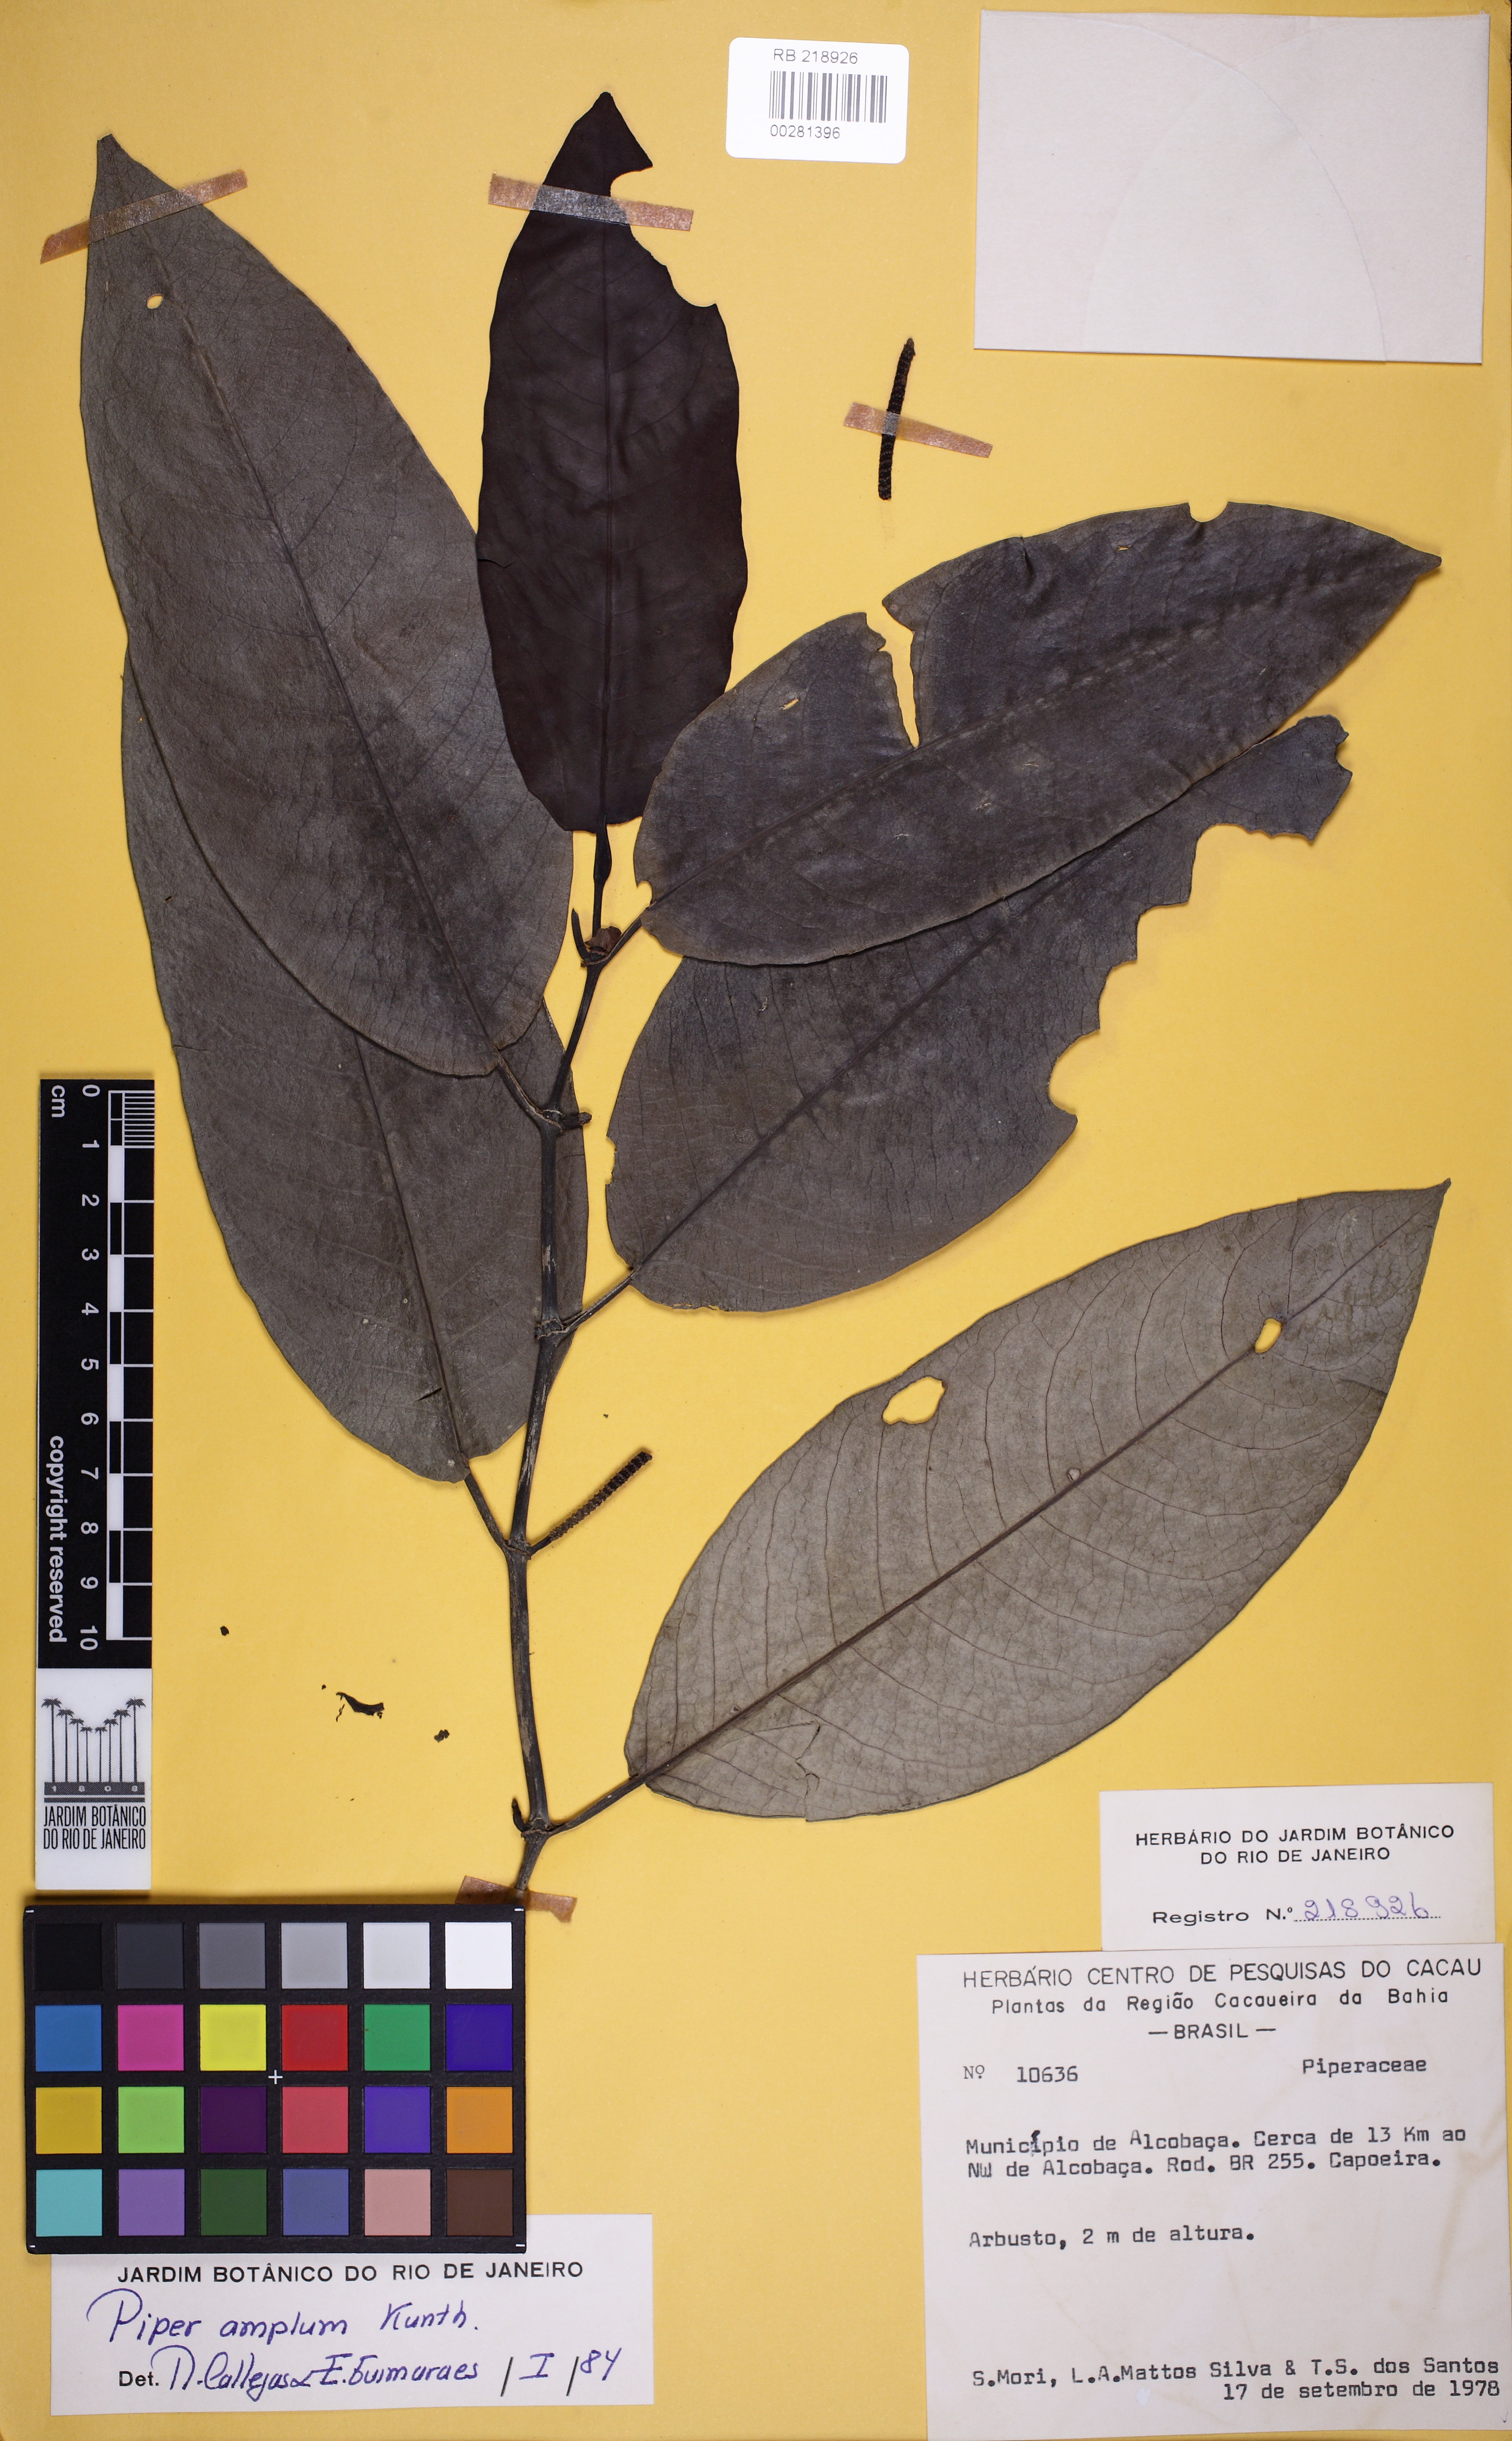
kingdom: Plantae
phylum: Tracheophyta
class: Magnoliopsida
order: Piperales
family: Piperaceae
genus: Piper
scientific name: Piper fluminense
